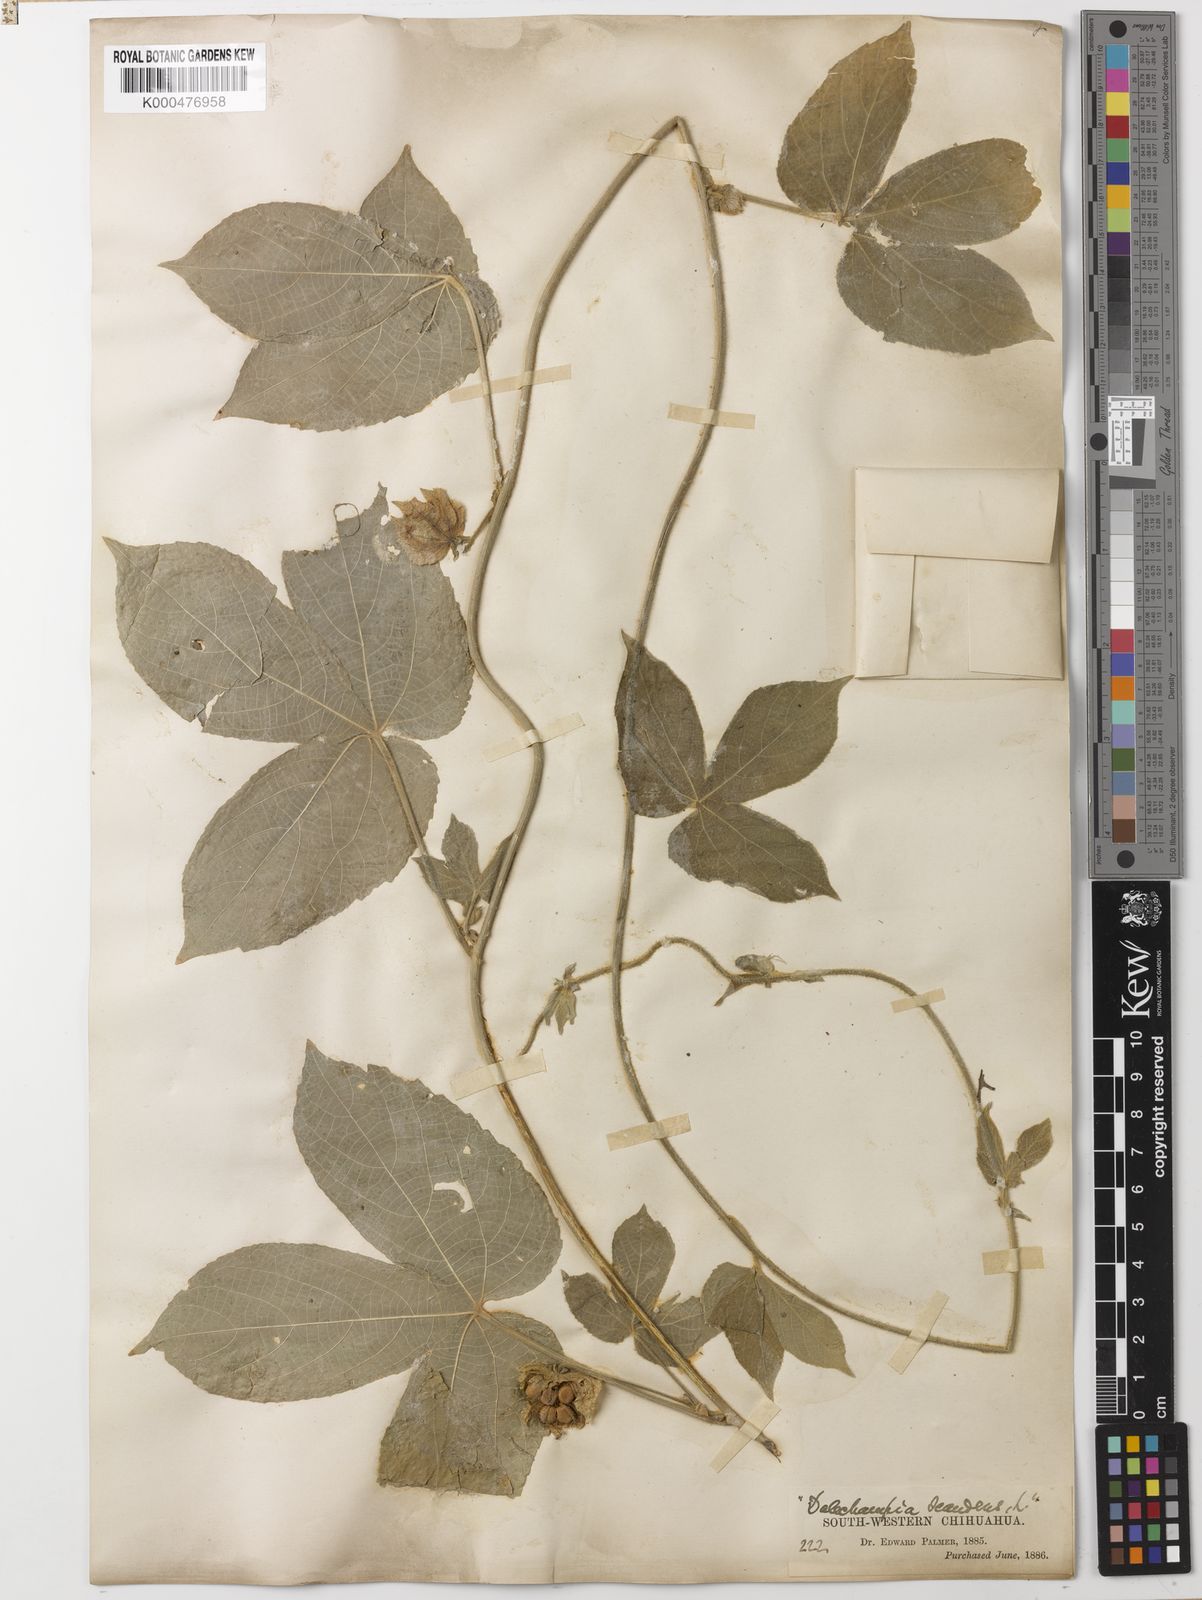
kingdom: Plantae
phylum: Tracheophyta
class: Magnoliopsida
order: Malpighiales
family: Euphorbiaceae
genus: Dalechampia
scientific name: Dalechampia scandens
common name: Spurgecreeper
